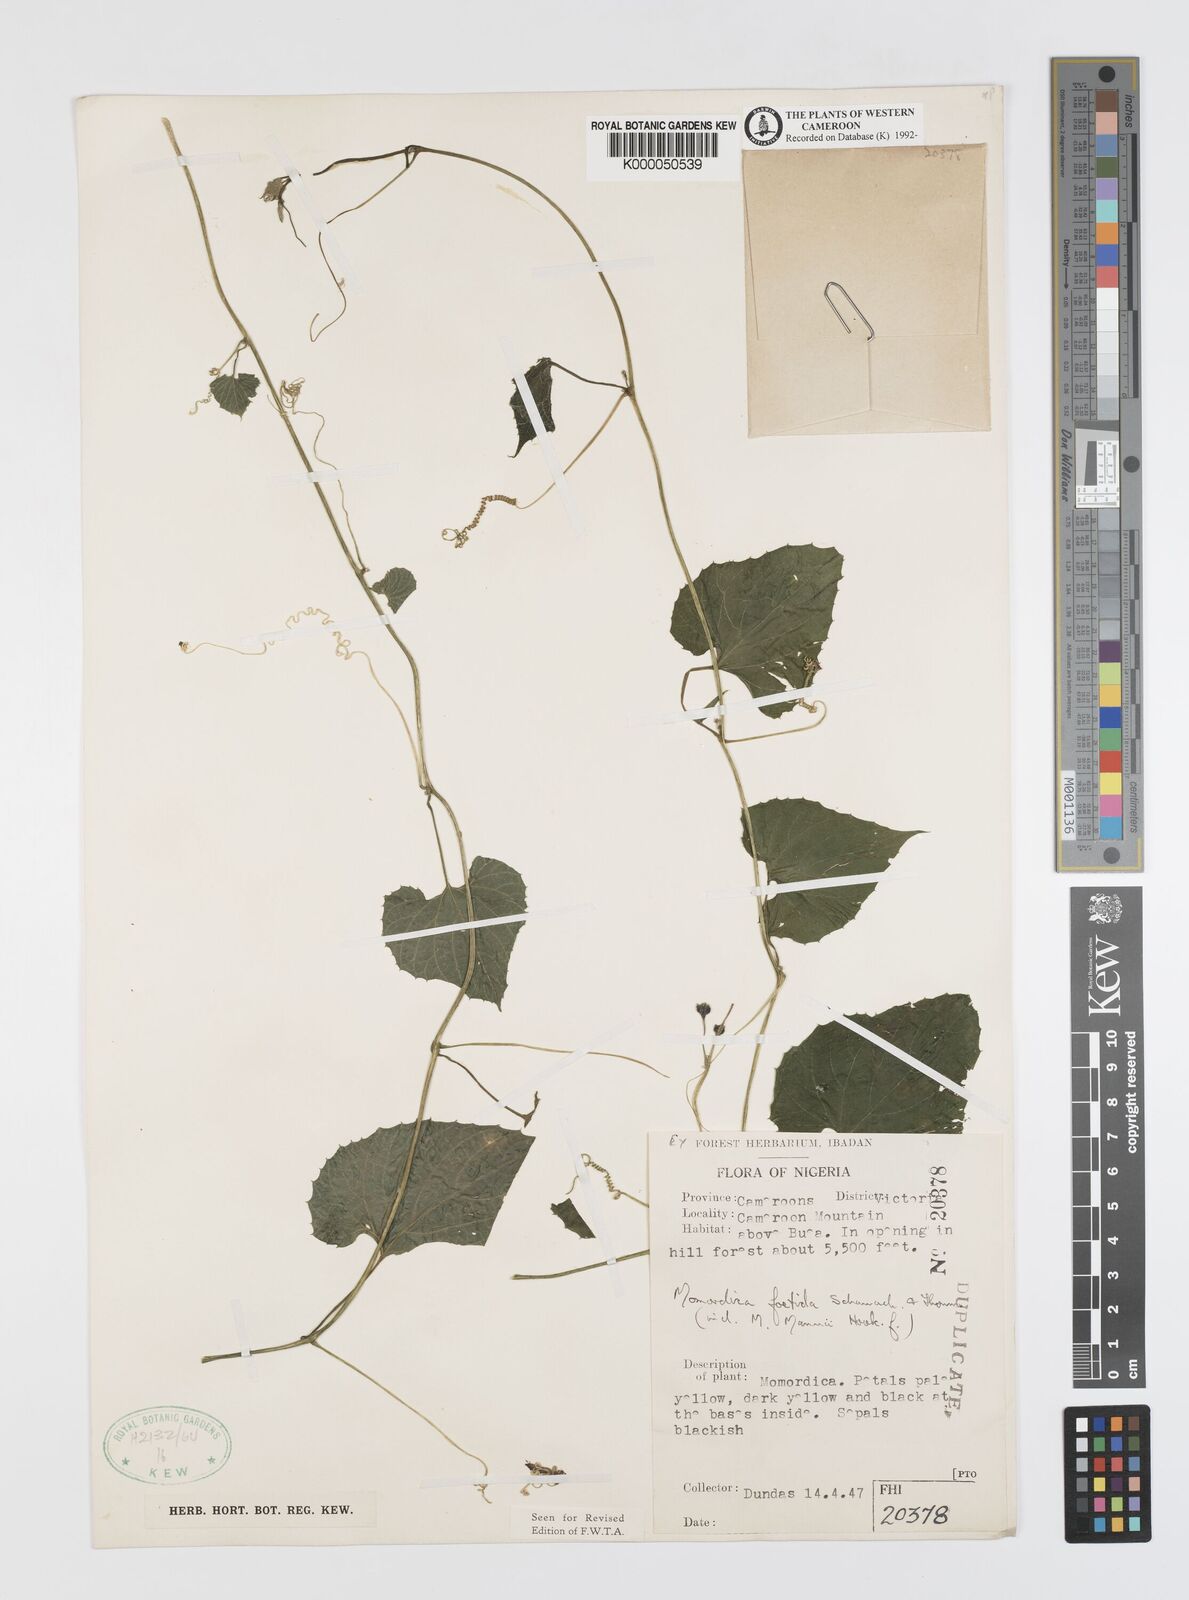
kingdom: Plantae
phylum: Tracheophyta
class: Magnoliopsida
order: Cucurbitales
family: Cucurbitaceae
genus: Momordica
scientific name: Momordica foetida
